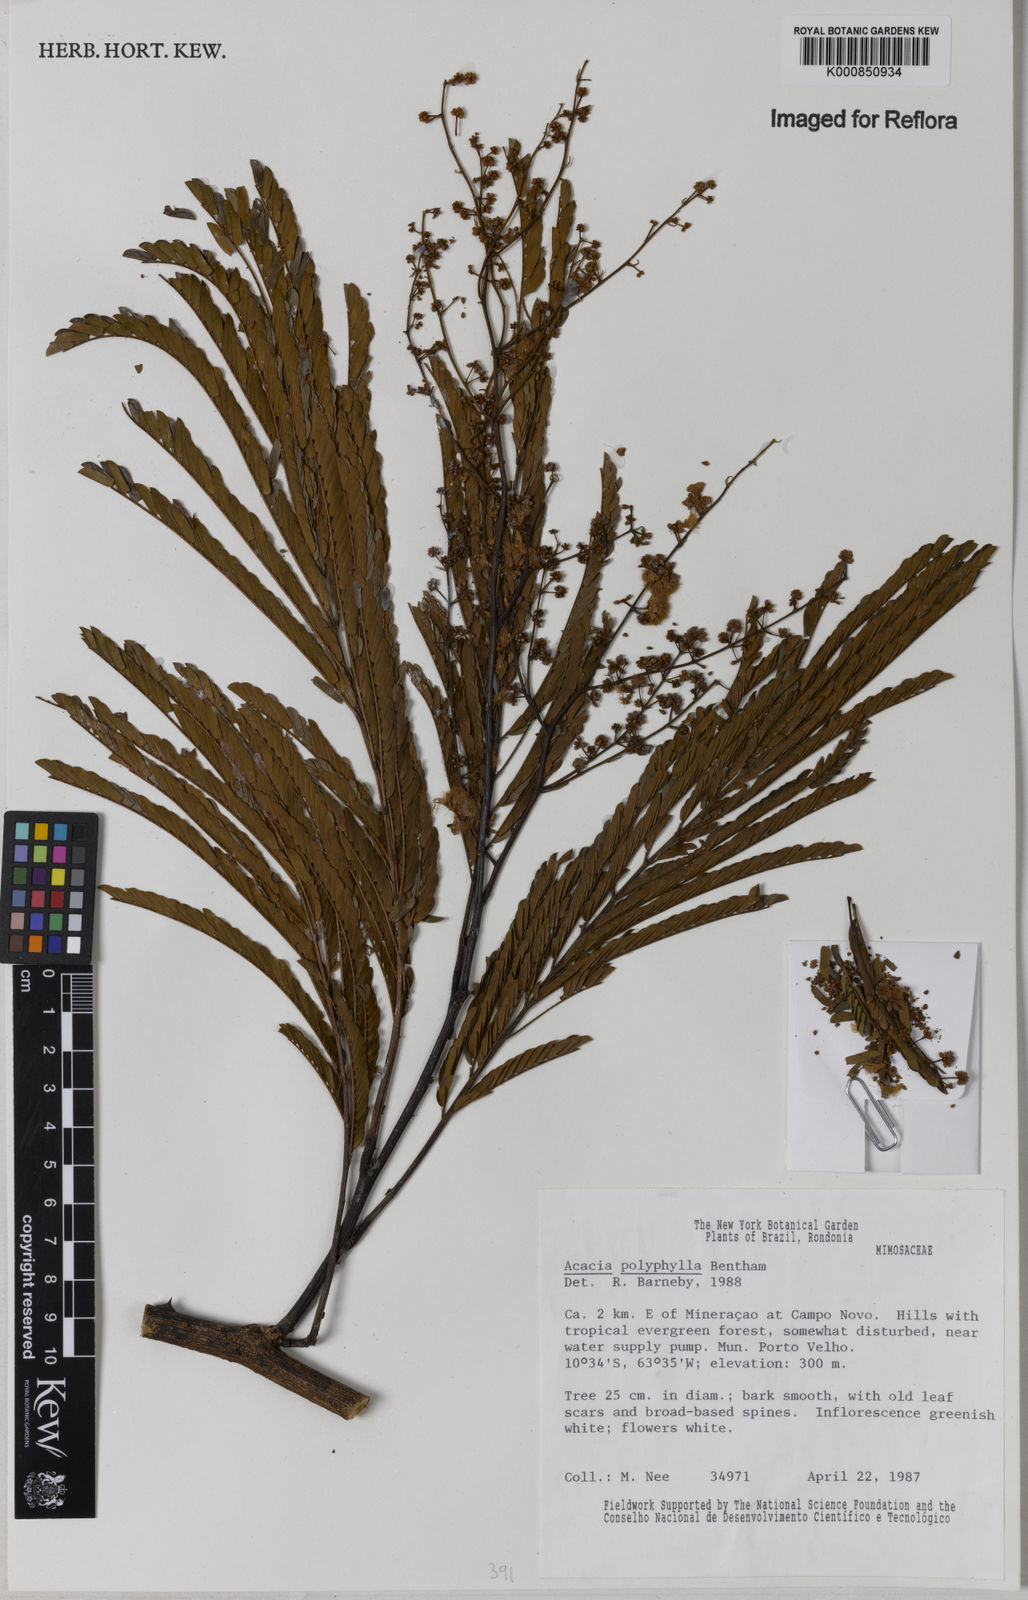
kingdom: Plantae
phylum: Tracheophyta
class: Magnoliopsida
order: Fabales
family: Fabaceae
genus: Senegalia
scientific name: Senegalia polyphylla
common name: White-tamarind
